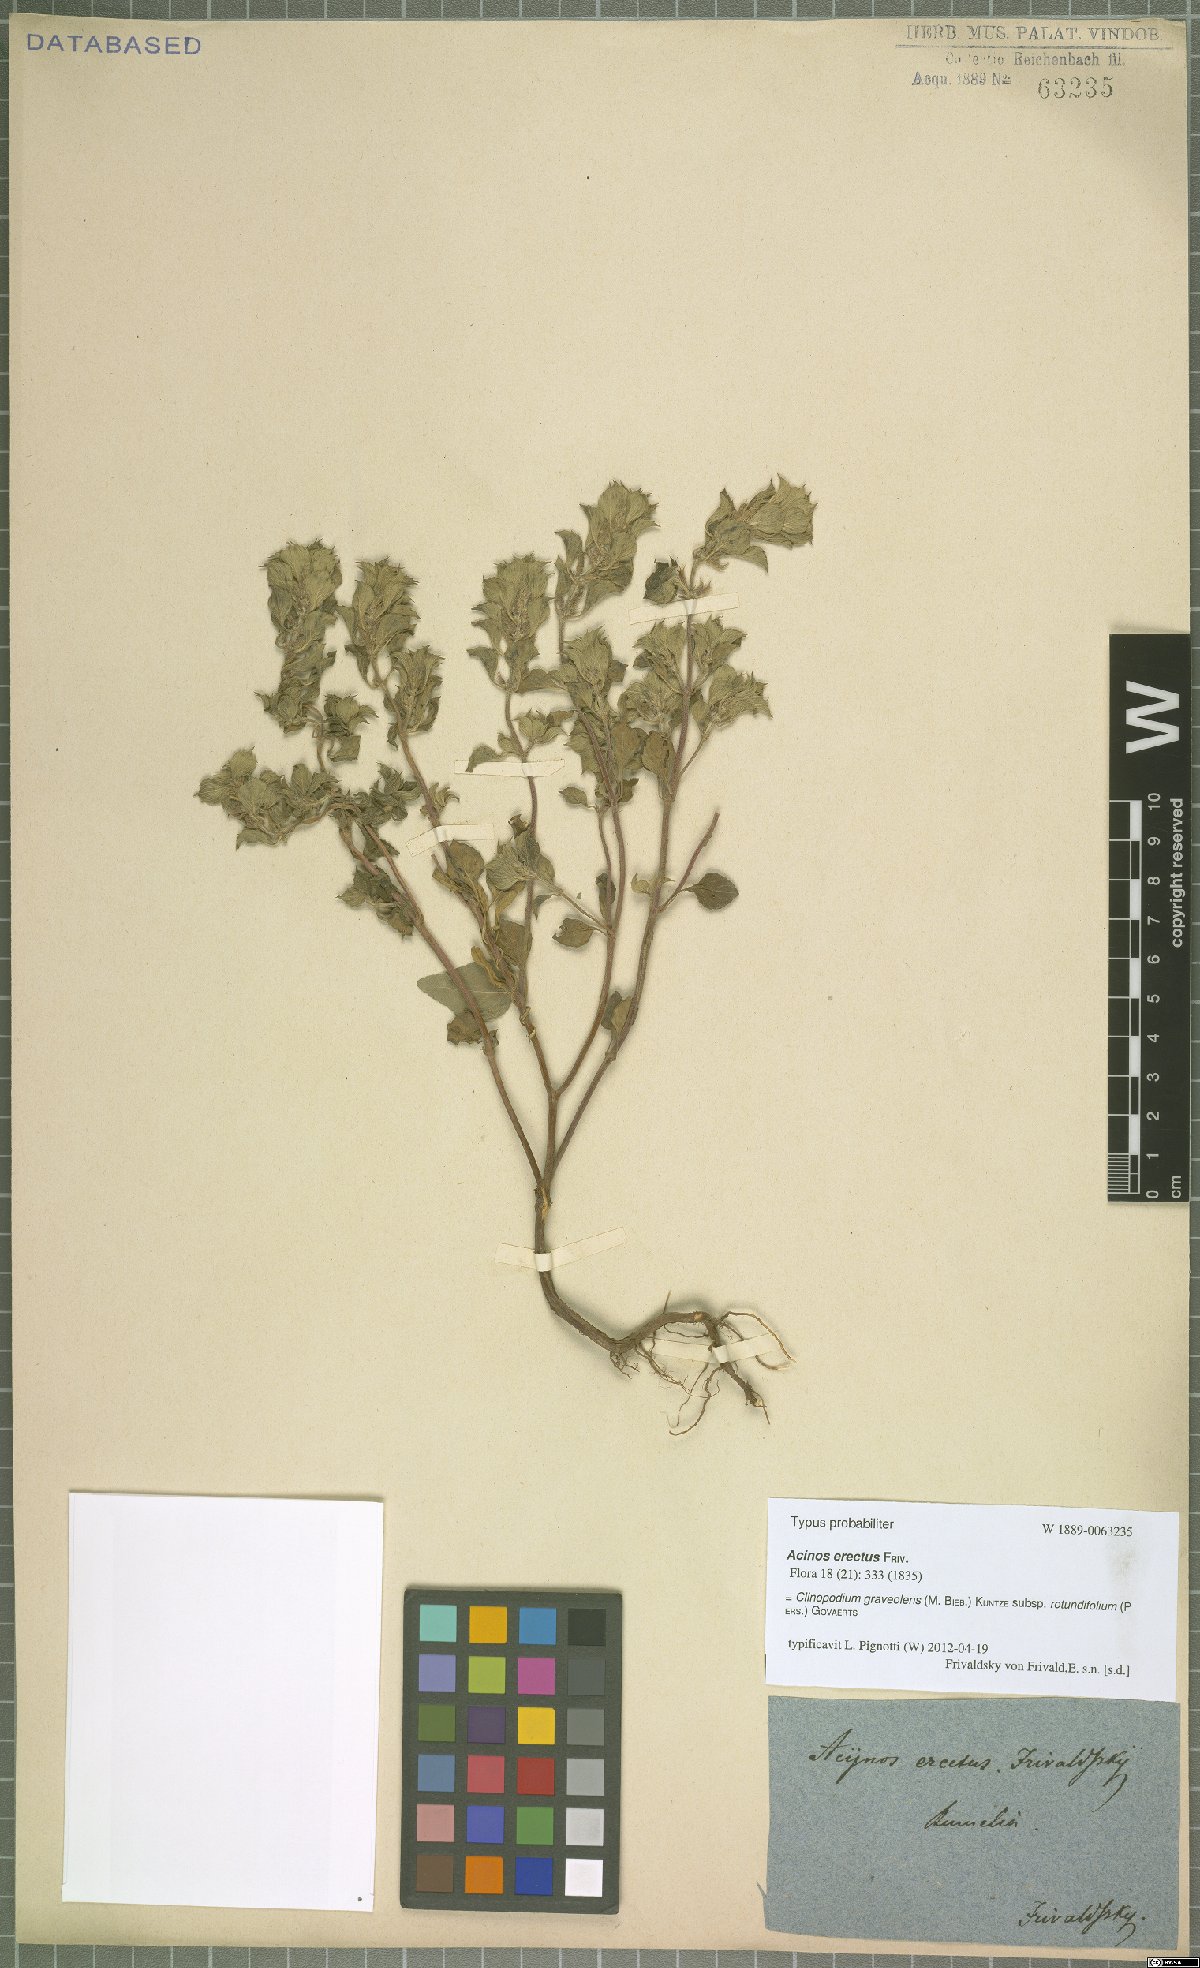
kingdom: Plantae
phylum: Tracheophyta
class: Magnoliopsida
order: Lamiales
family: Lamiaceae
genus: Clinopodium
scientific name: Clinopodium graveolens
